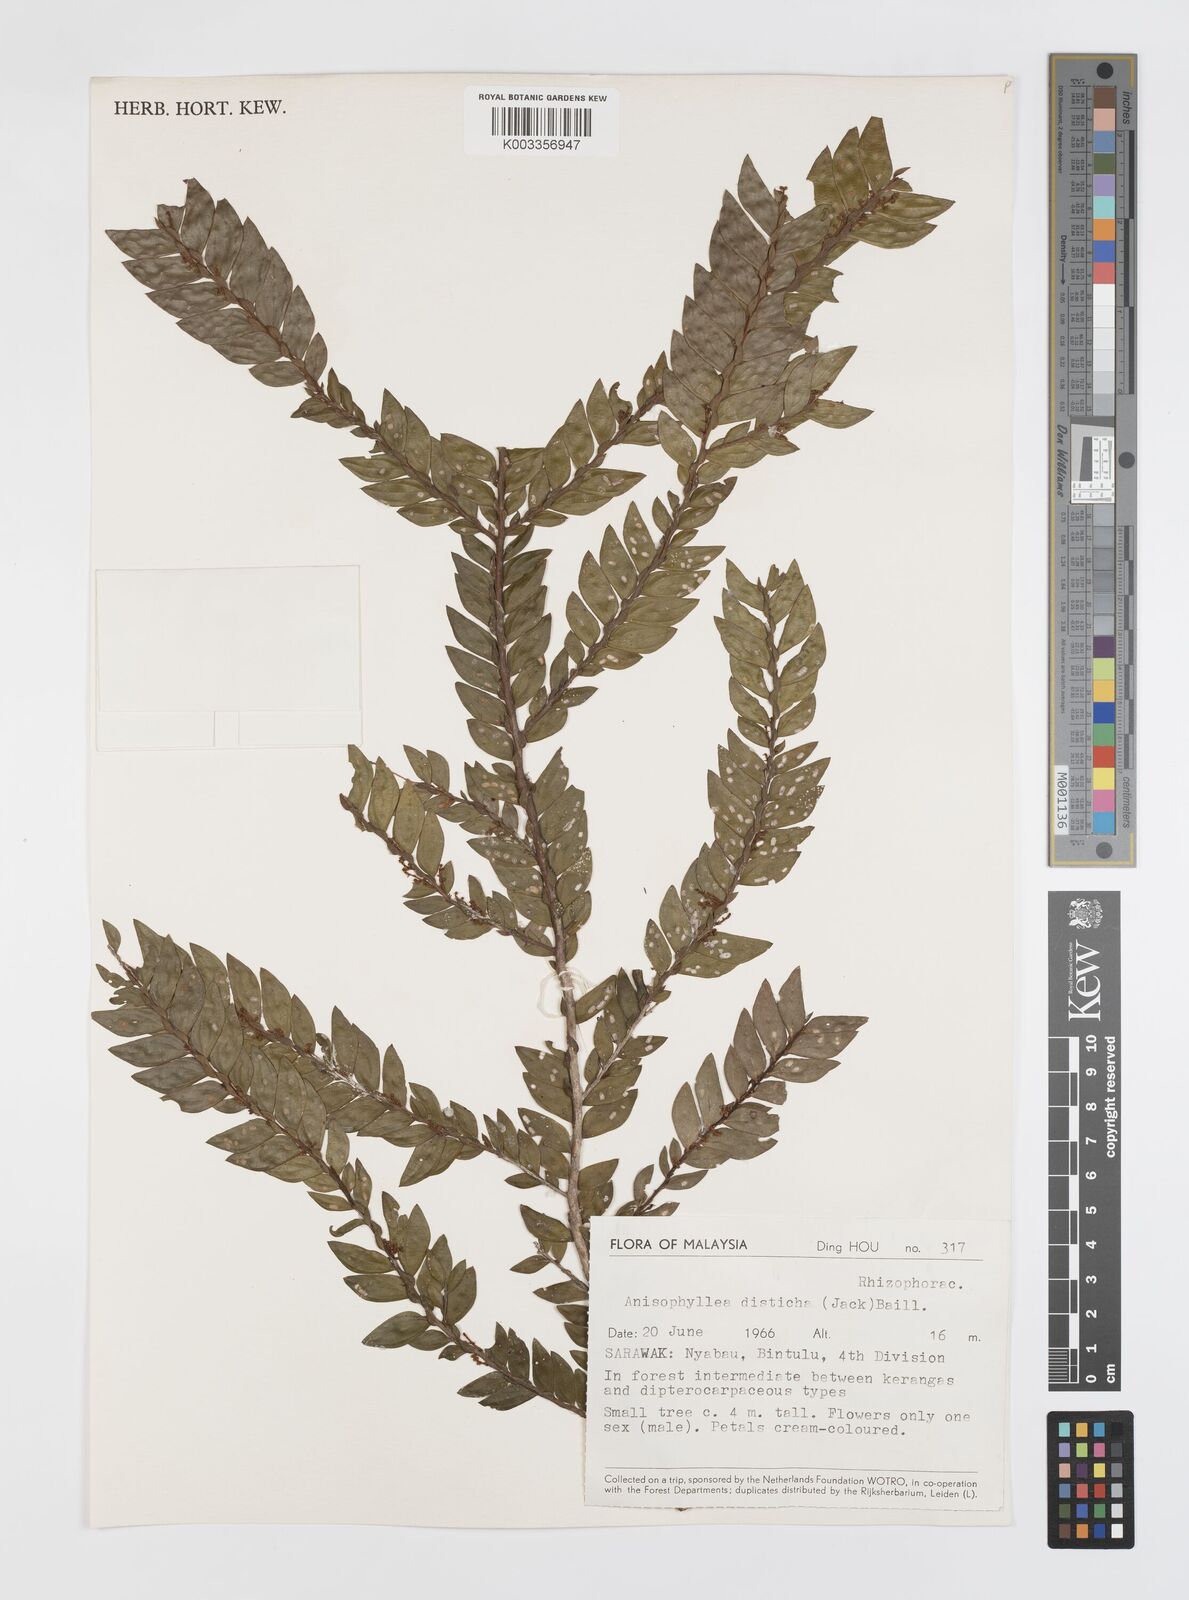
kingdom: Plantae
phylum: Tracheophyta
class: Magnoliopsida
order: Cucurbitales
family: Anisophylleaceae
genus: Anisophyllea
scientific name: Anisophyllea disticha
